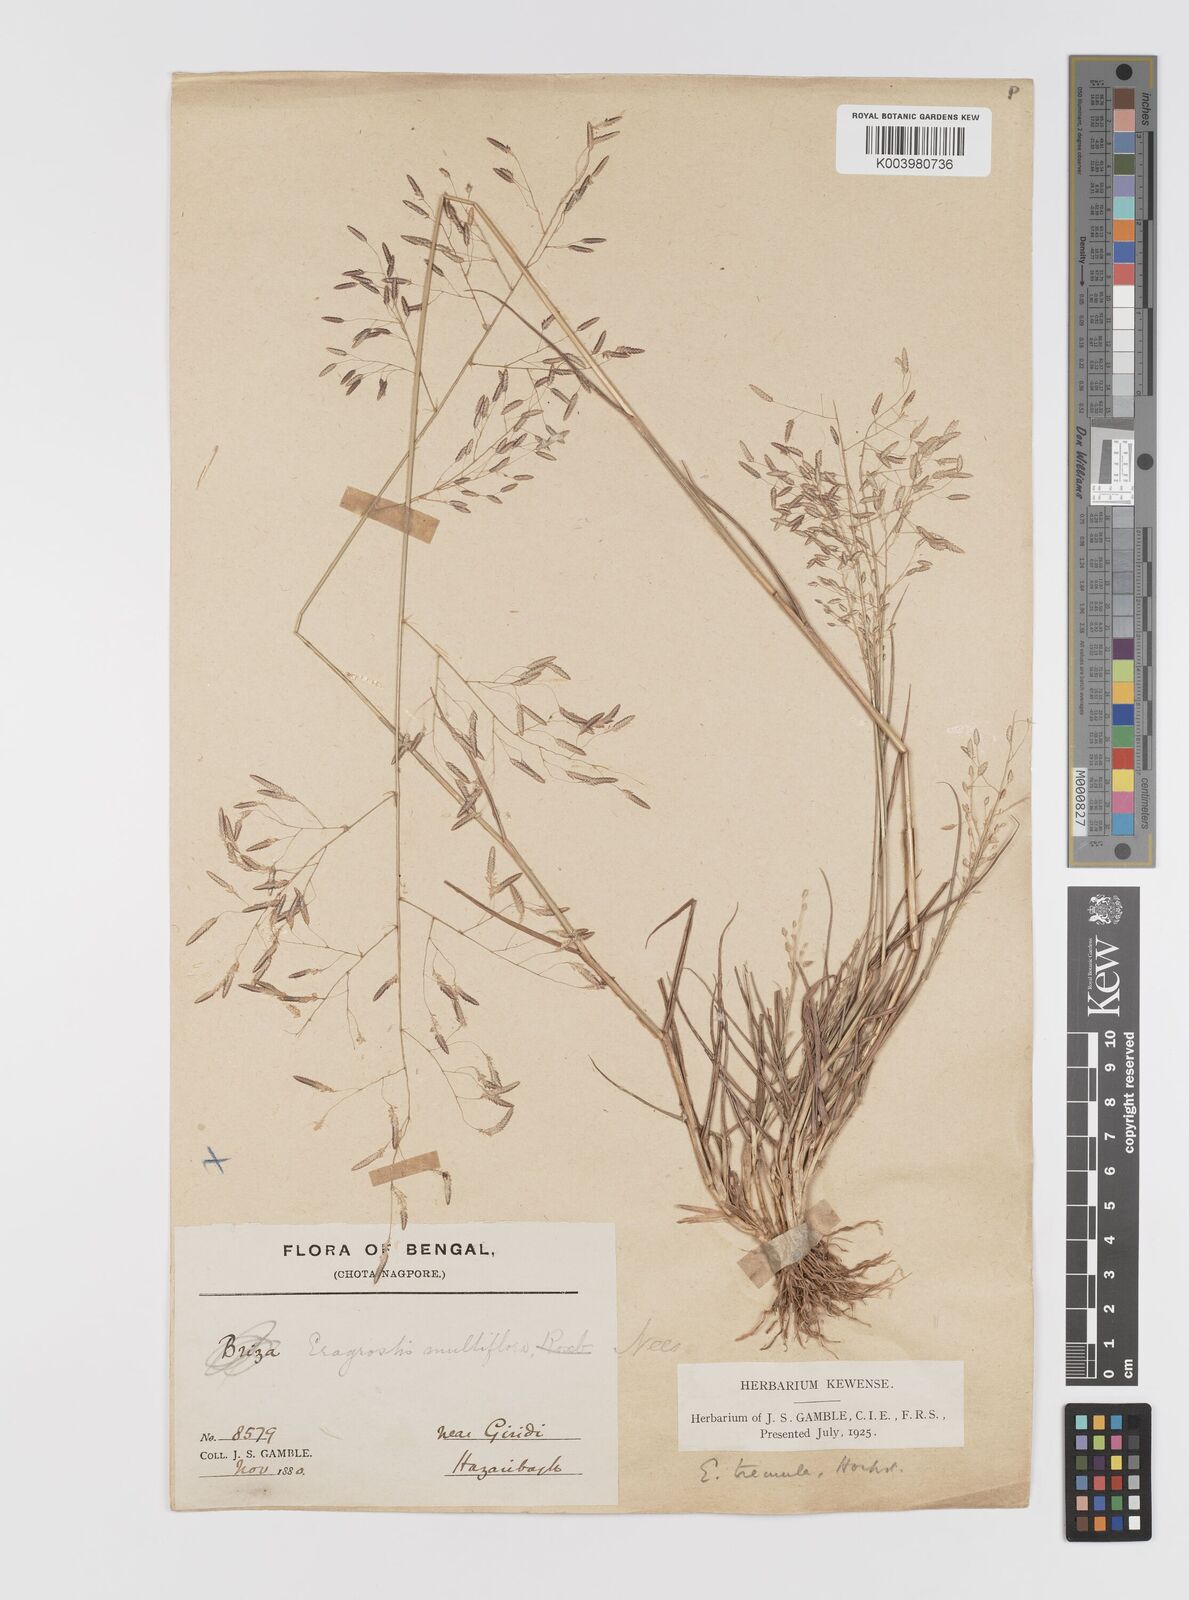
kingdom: Plantae
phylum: Tracheophyta
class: Liliopsida
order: Poales
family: Poaceae
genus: Eragrostis
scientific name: Eragrostis tremula
